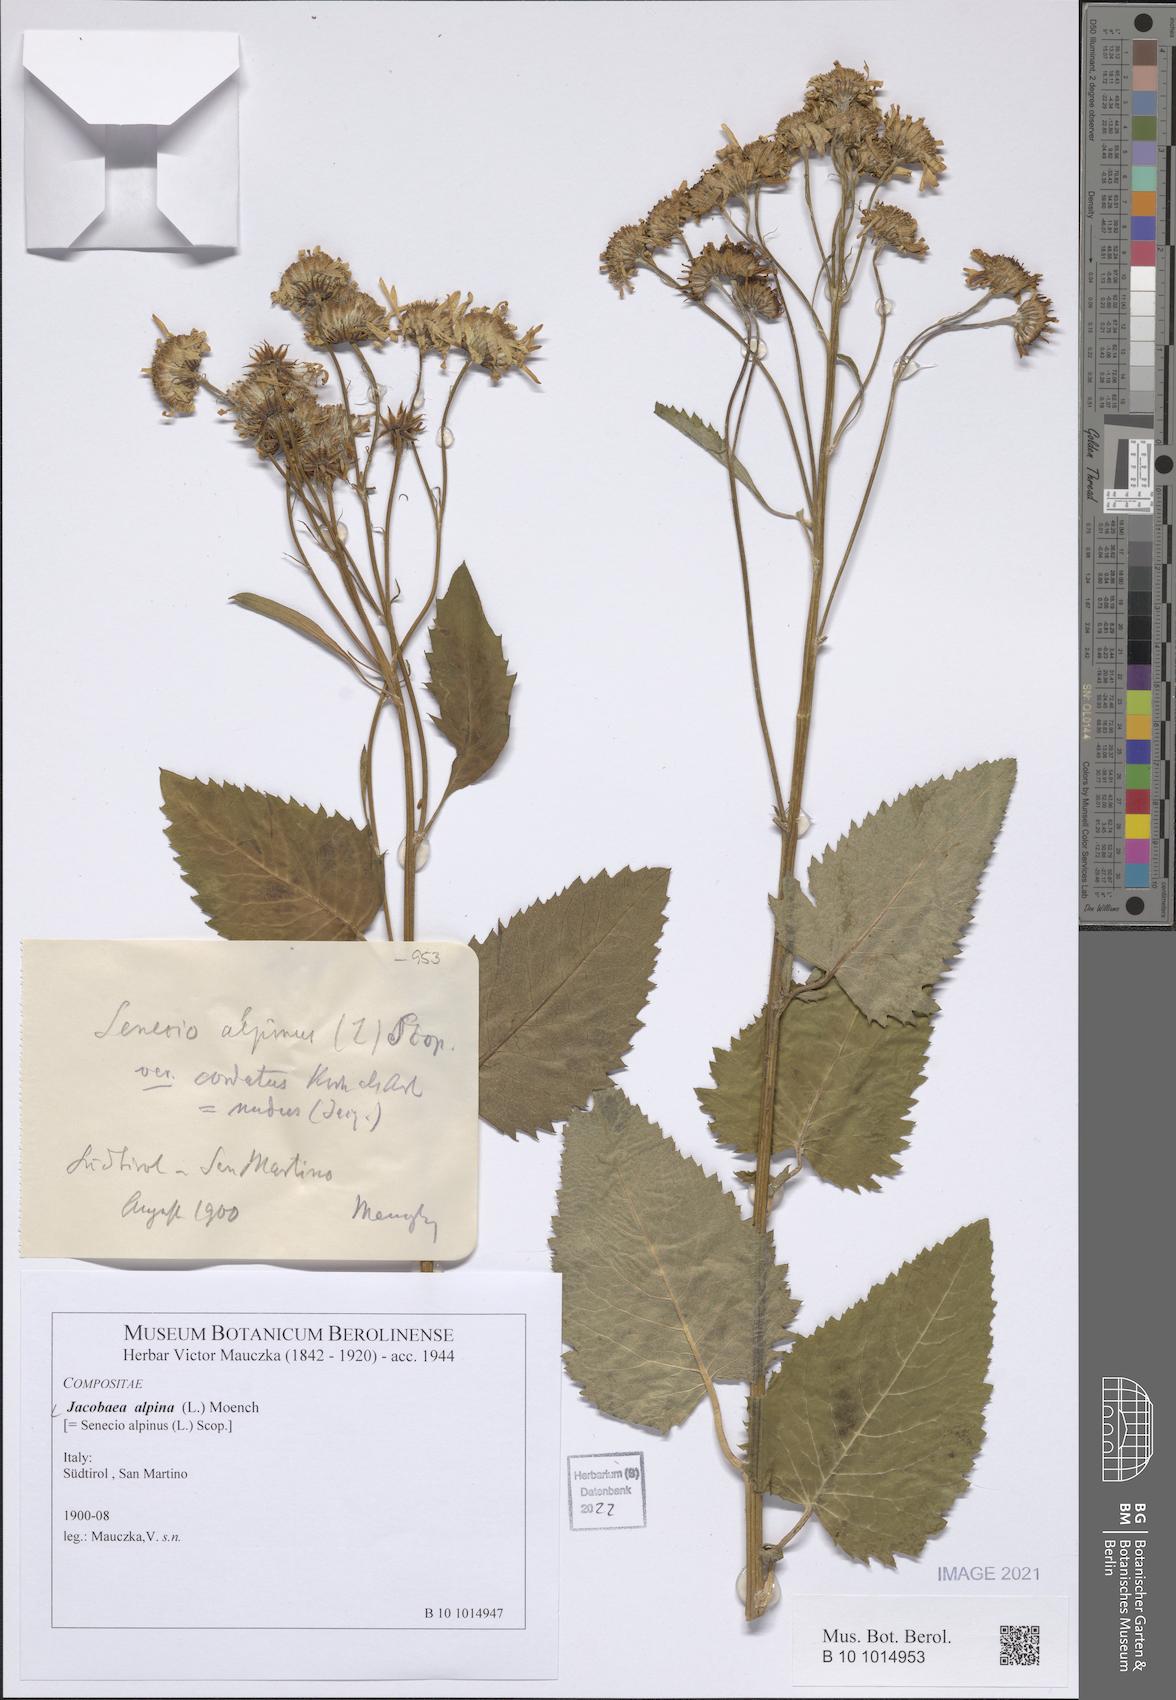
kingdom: Plantae
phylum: Tracheophyta
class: Magnoliopsida
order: Asterales
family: Asteraceae
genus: Jacobaea
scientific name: Jacobaea alpina
